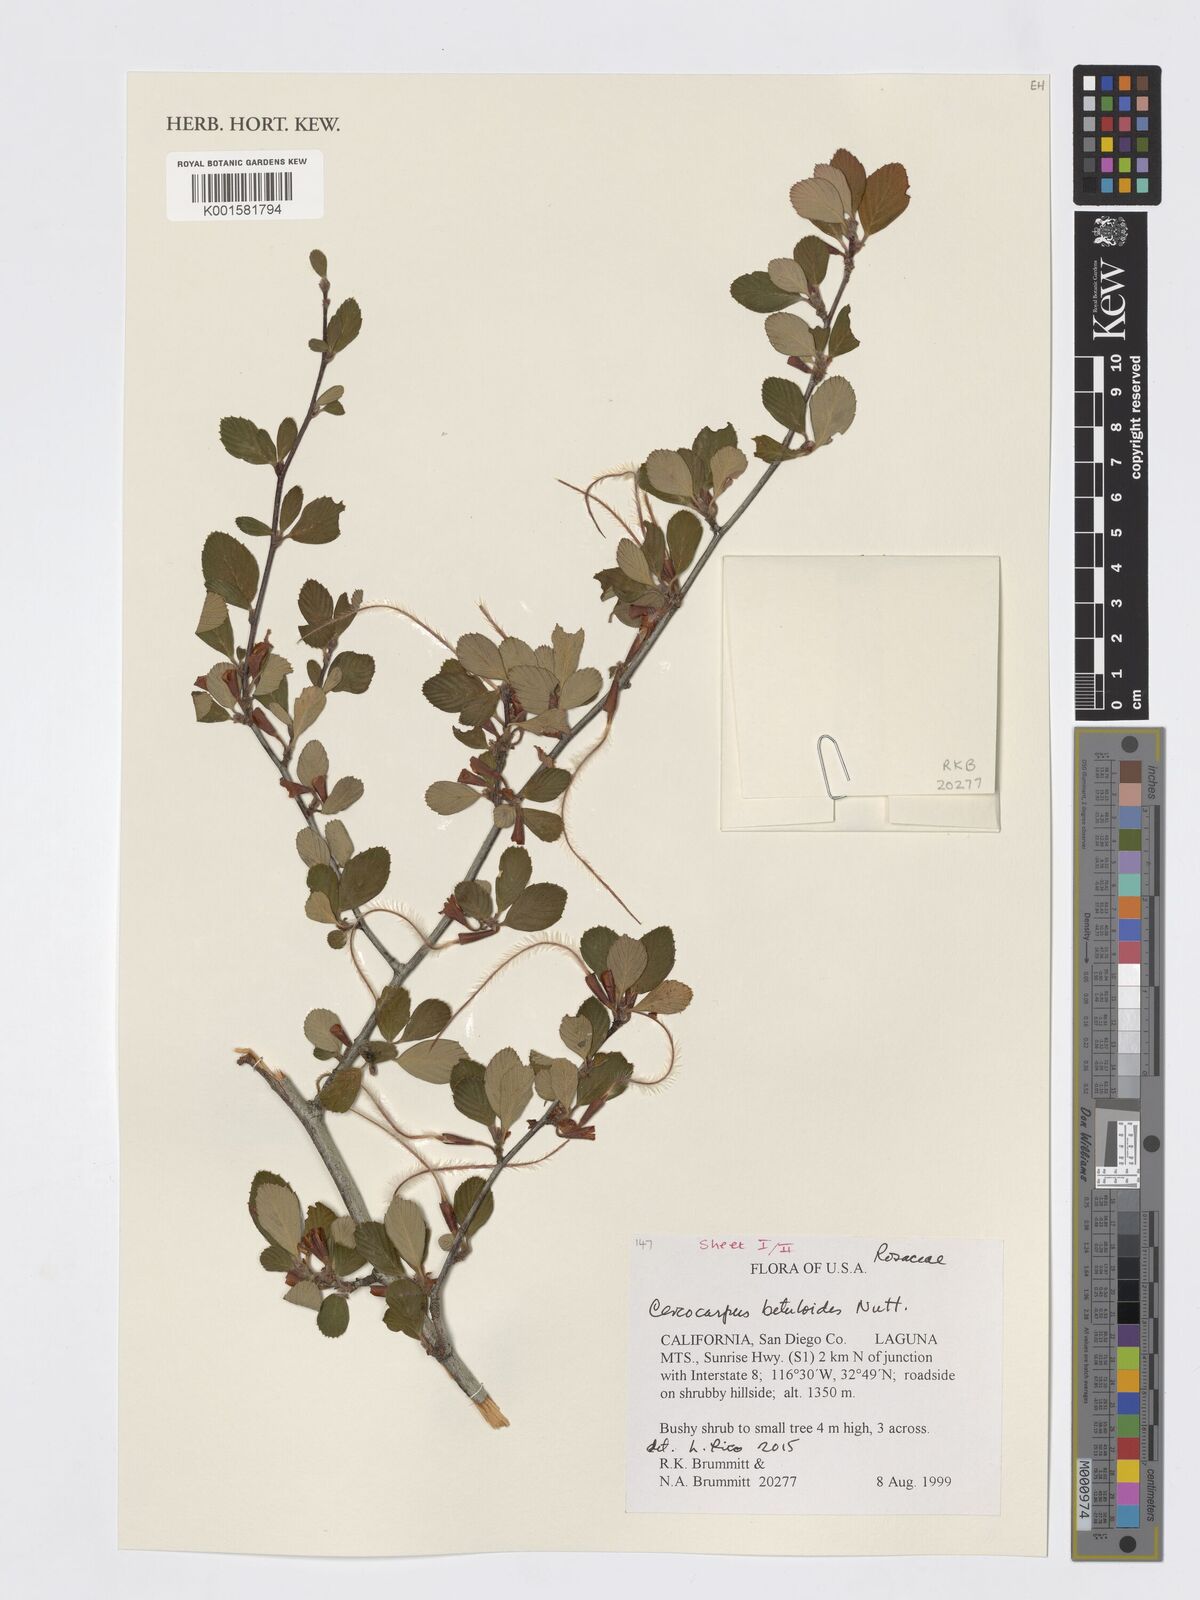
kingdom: Plantae
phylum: Tracheophyta
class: Magnoliopsida
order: Rosales
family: Rosaceae
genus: Cercocarpus
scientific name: Cercocarpus betuloides
